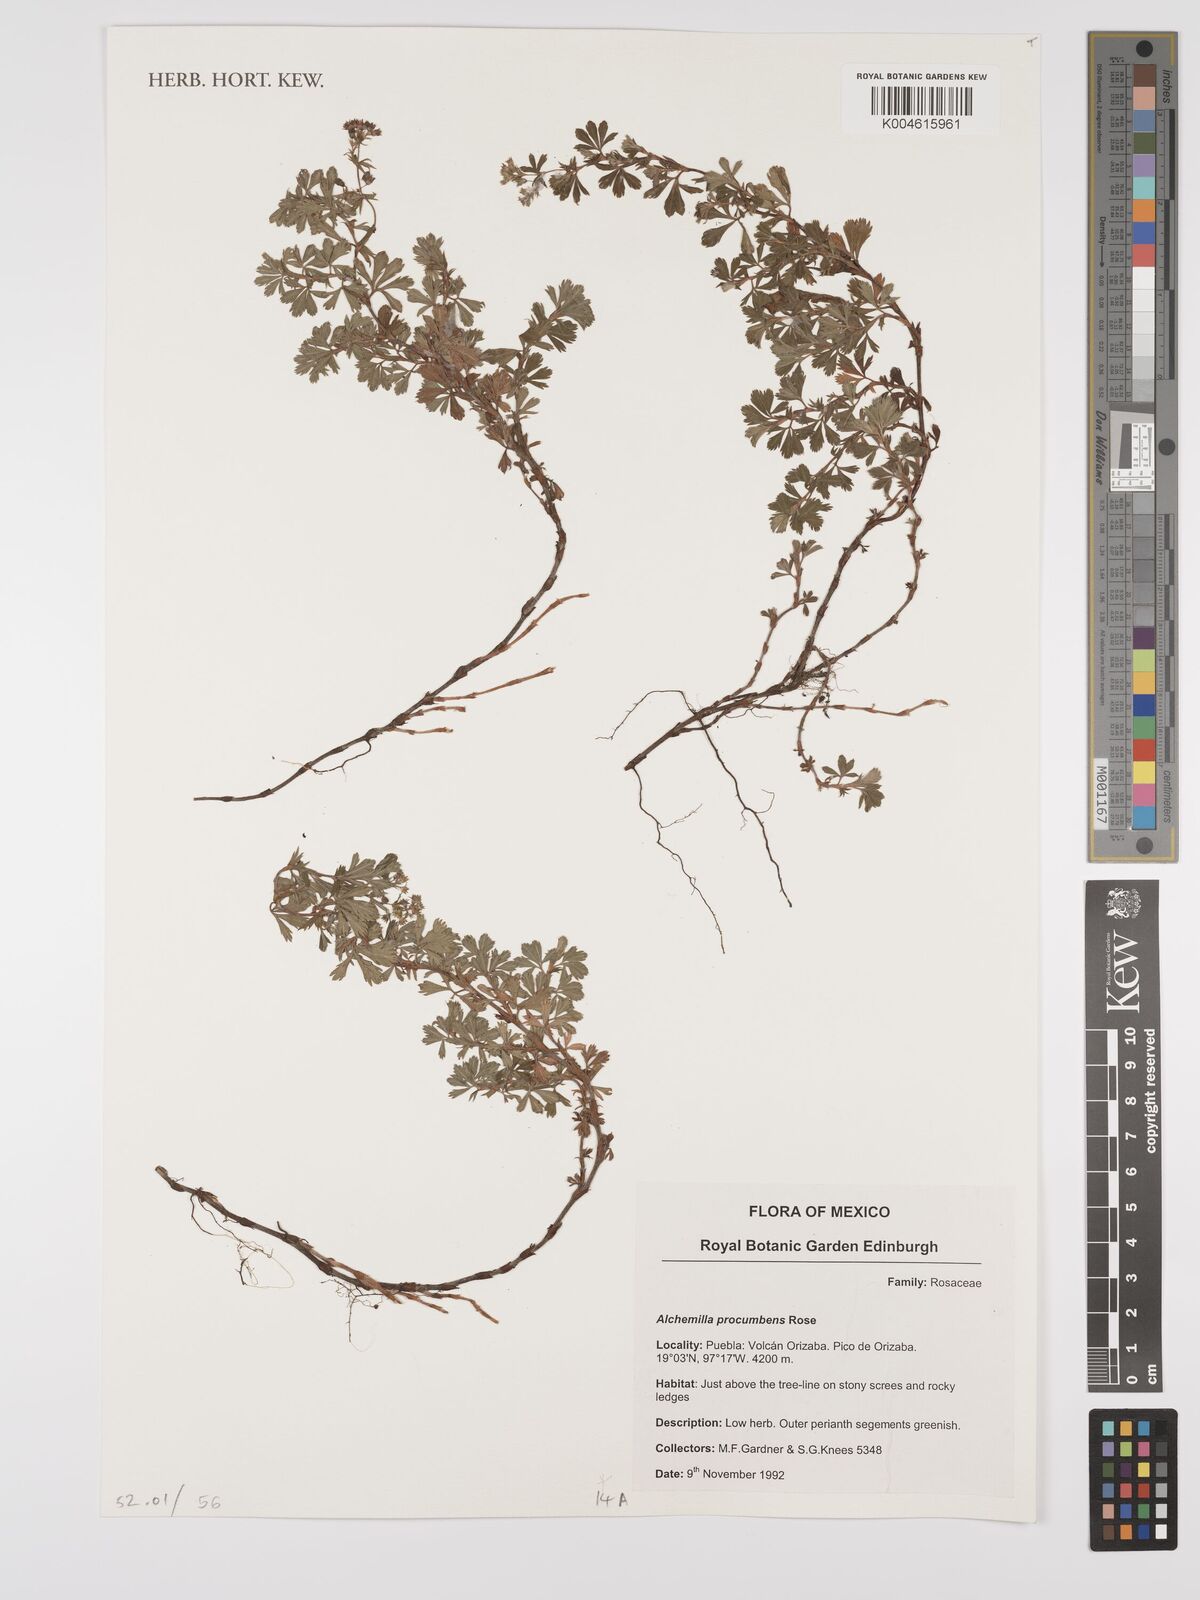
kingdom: Plantae
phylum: Tracheophyta
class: Magnoliopsida
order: Rosales
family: Rosaceae
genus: Lachemilla
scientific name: Lachemilla procumbens
